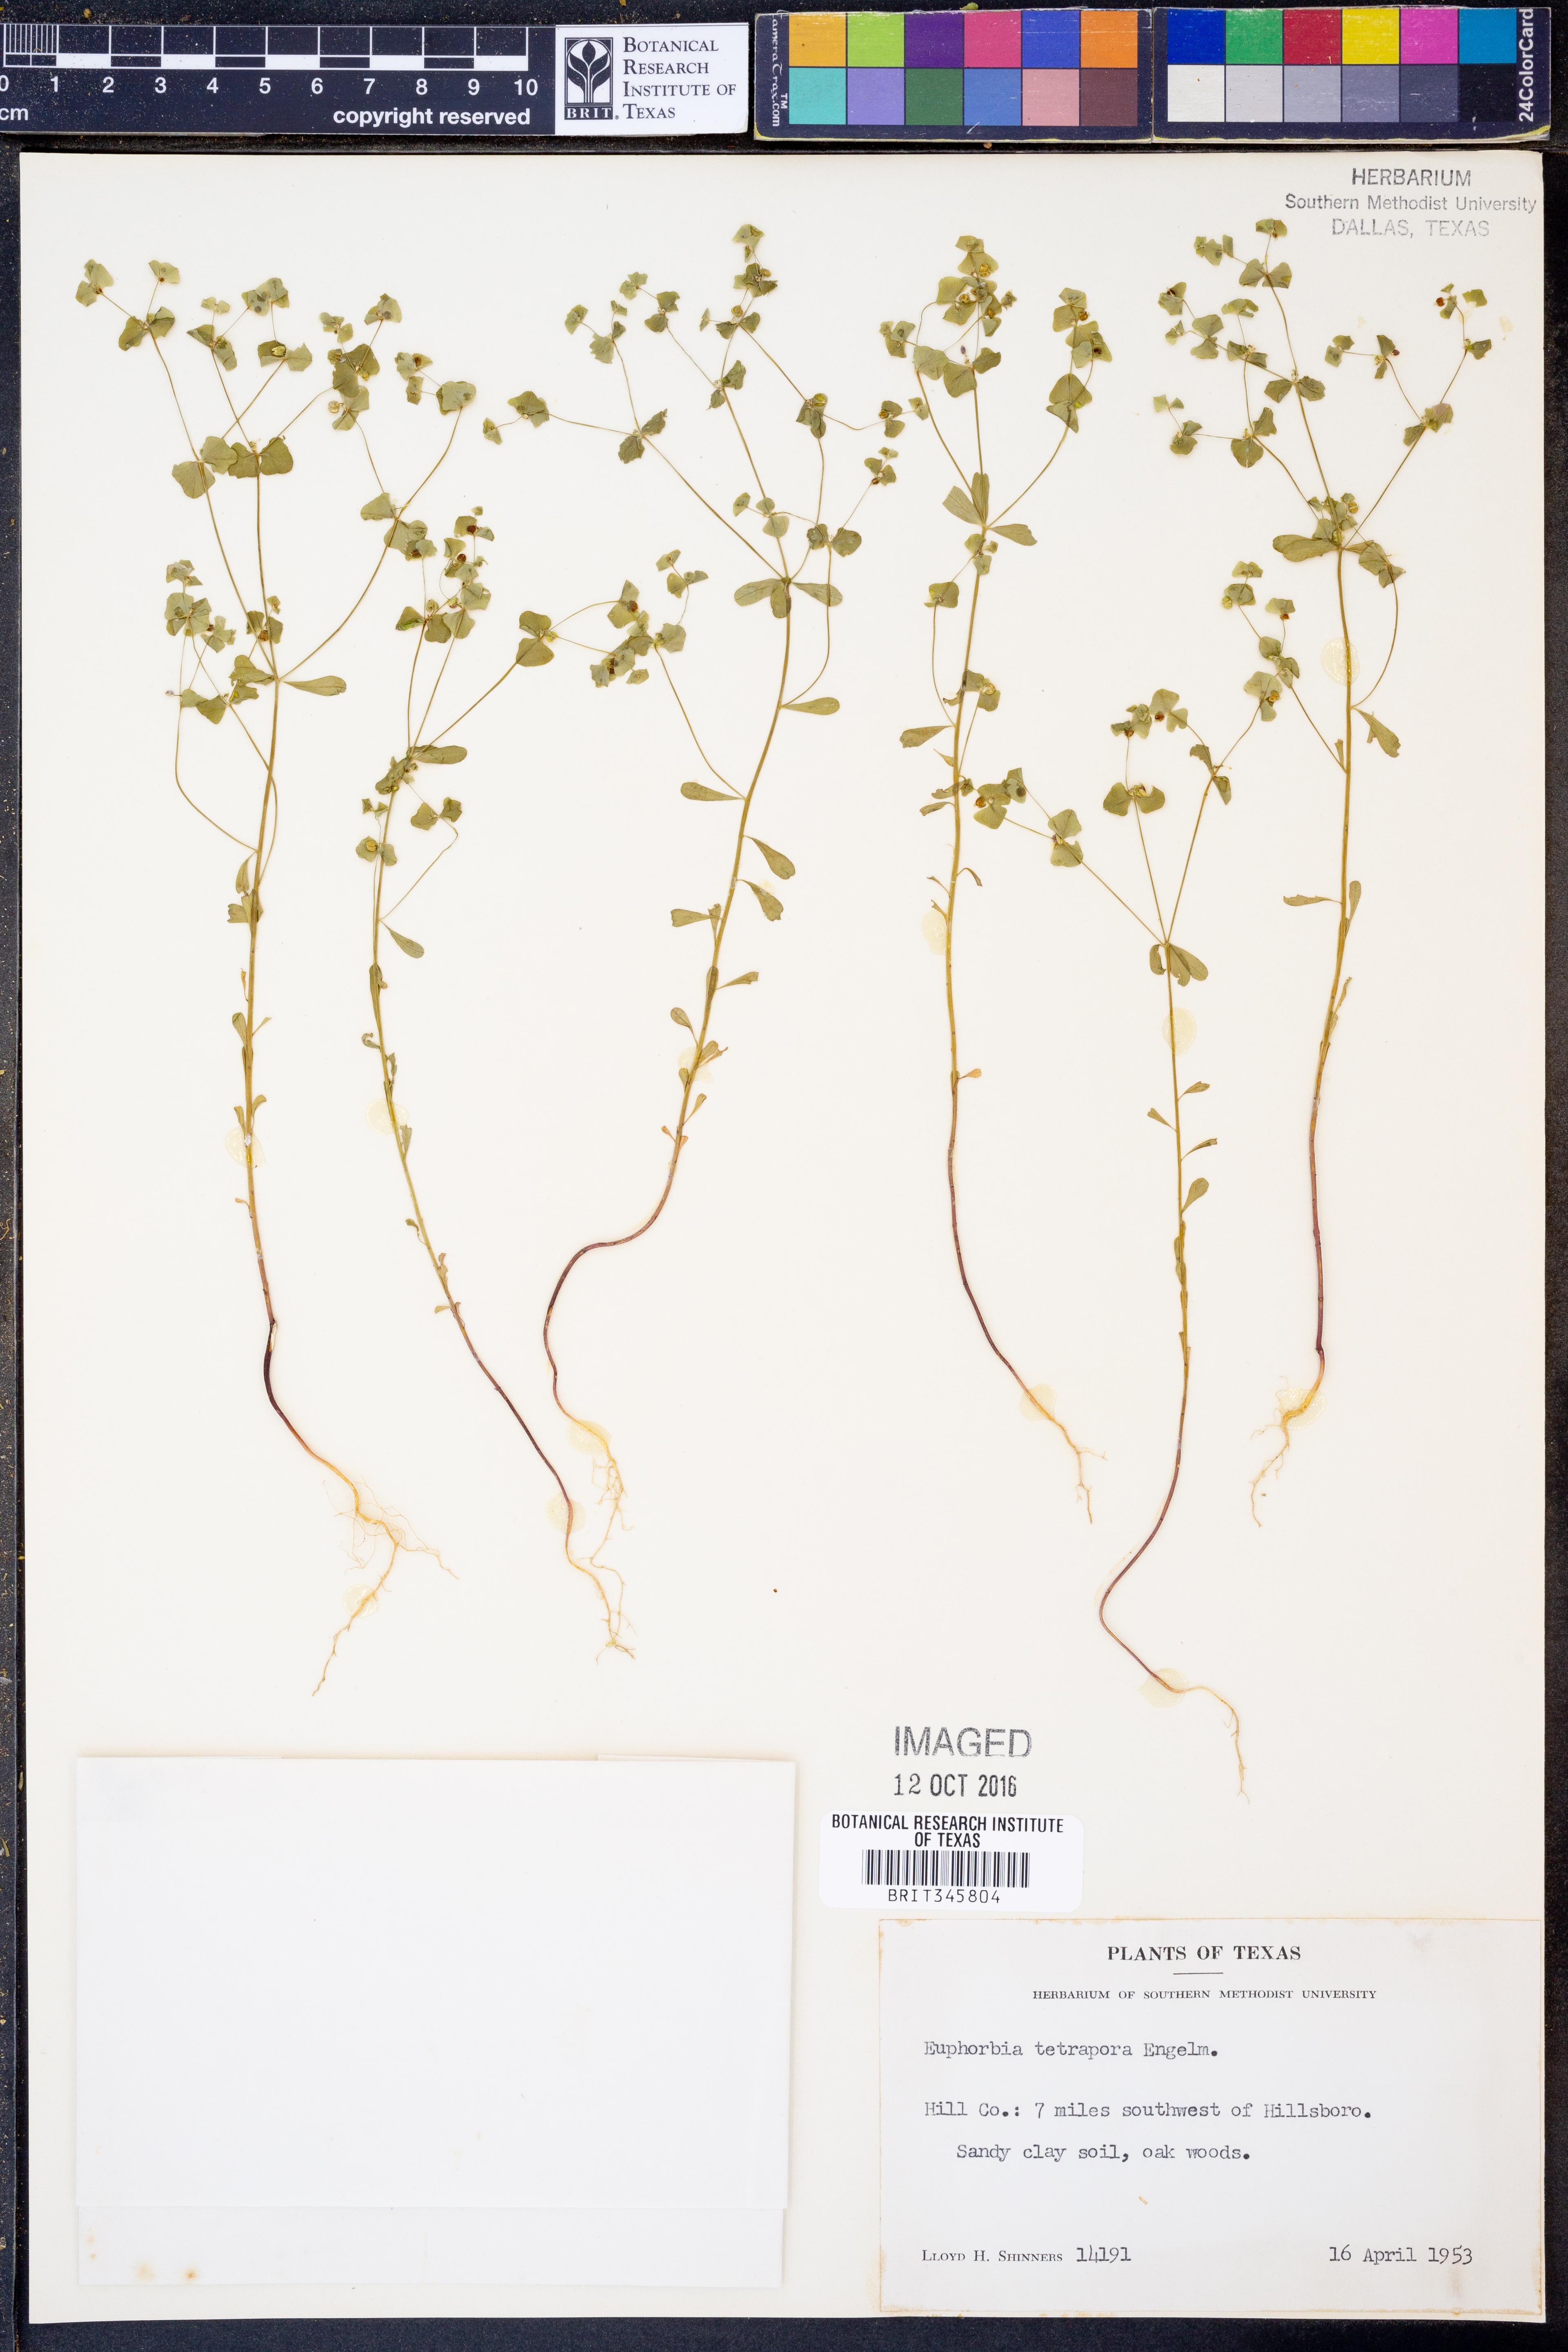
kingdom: Plantae
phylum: Tracheophyta
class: Magnoliopsida
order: Malpighiales
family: Euphorbiaceae
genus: Euphorbia
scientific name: Euphorbia tetrapora
